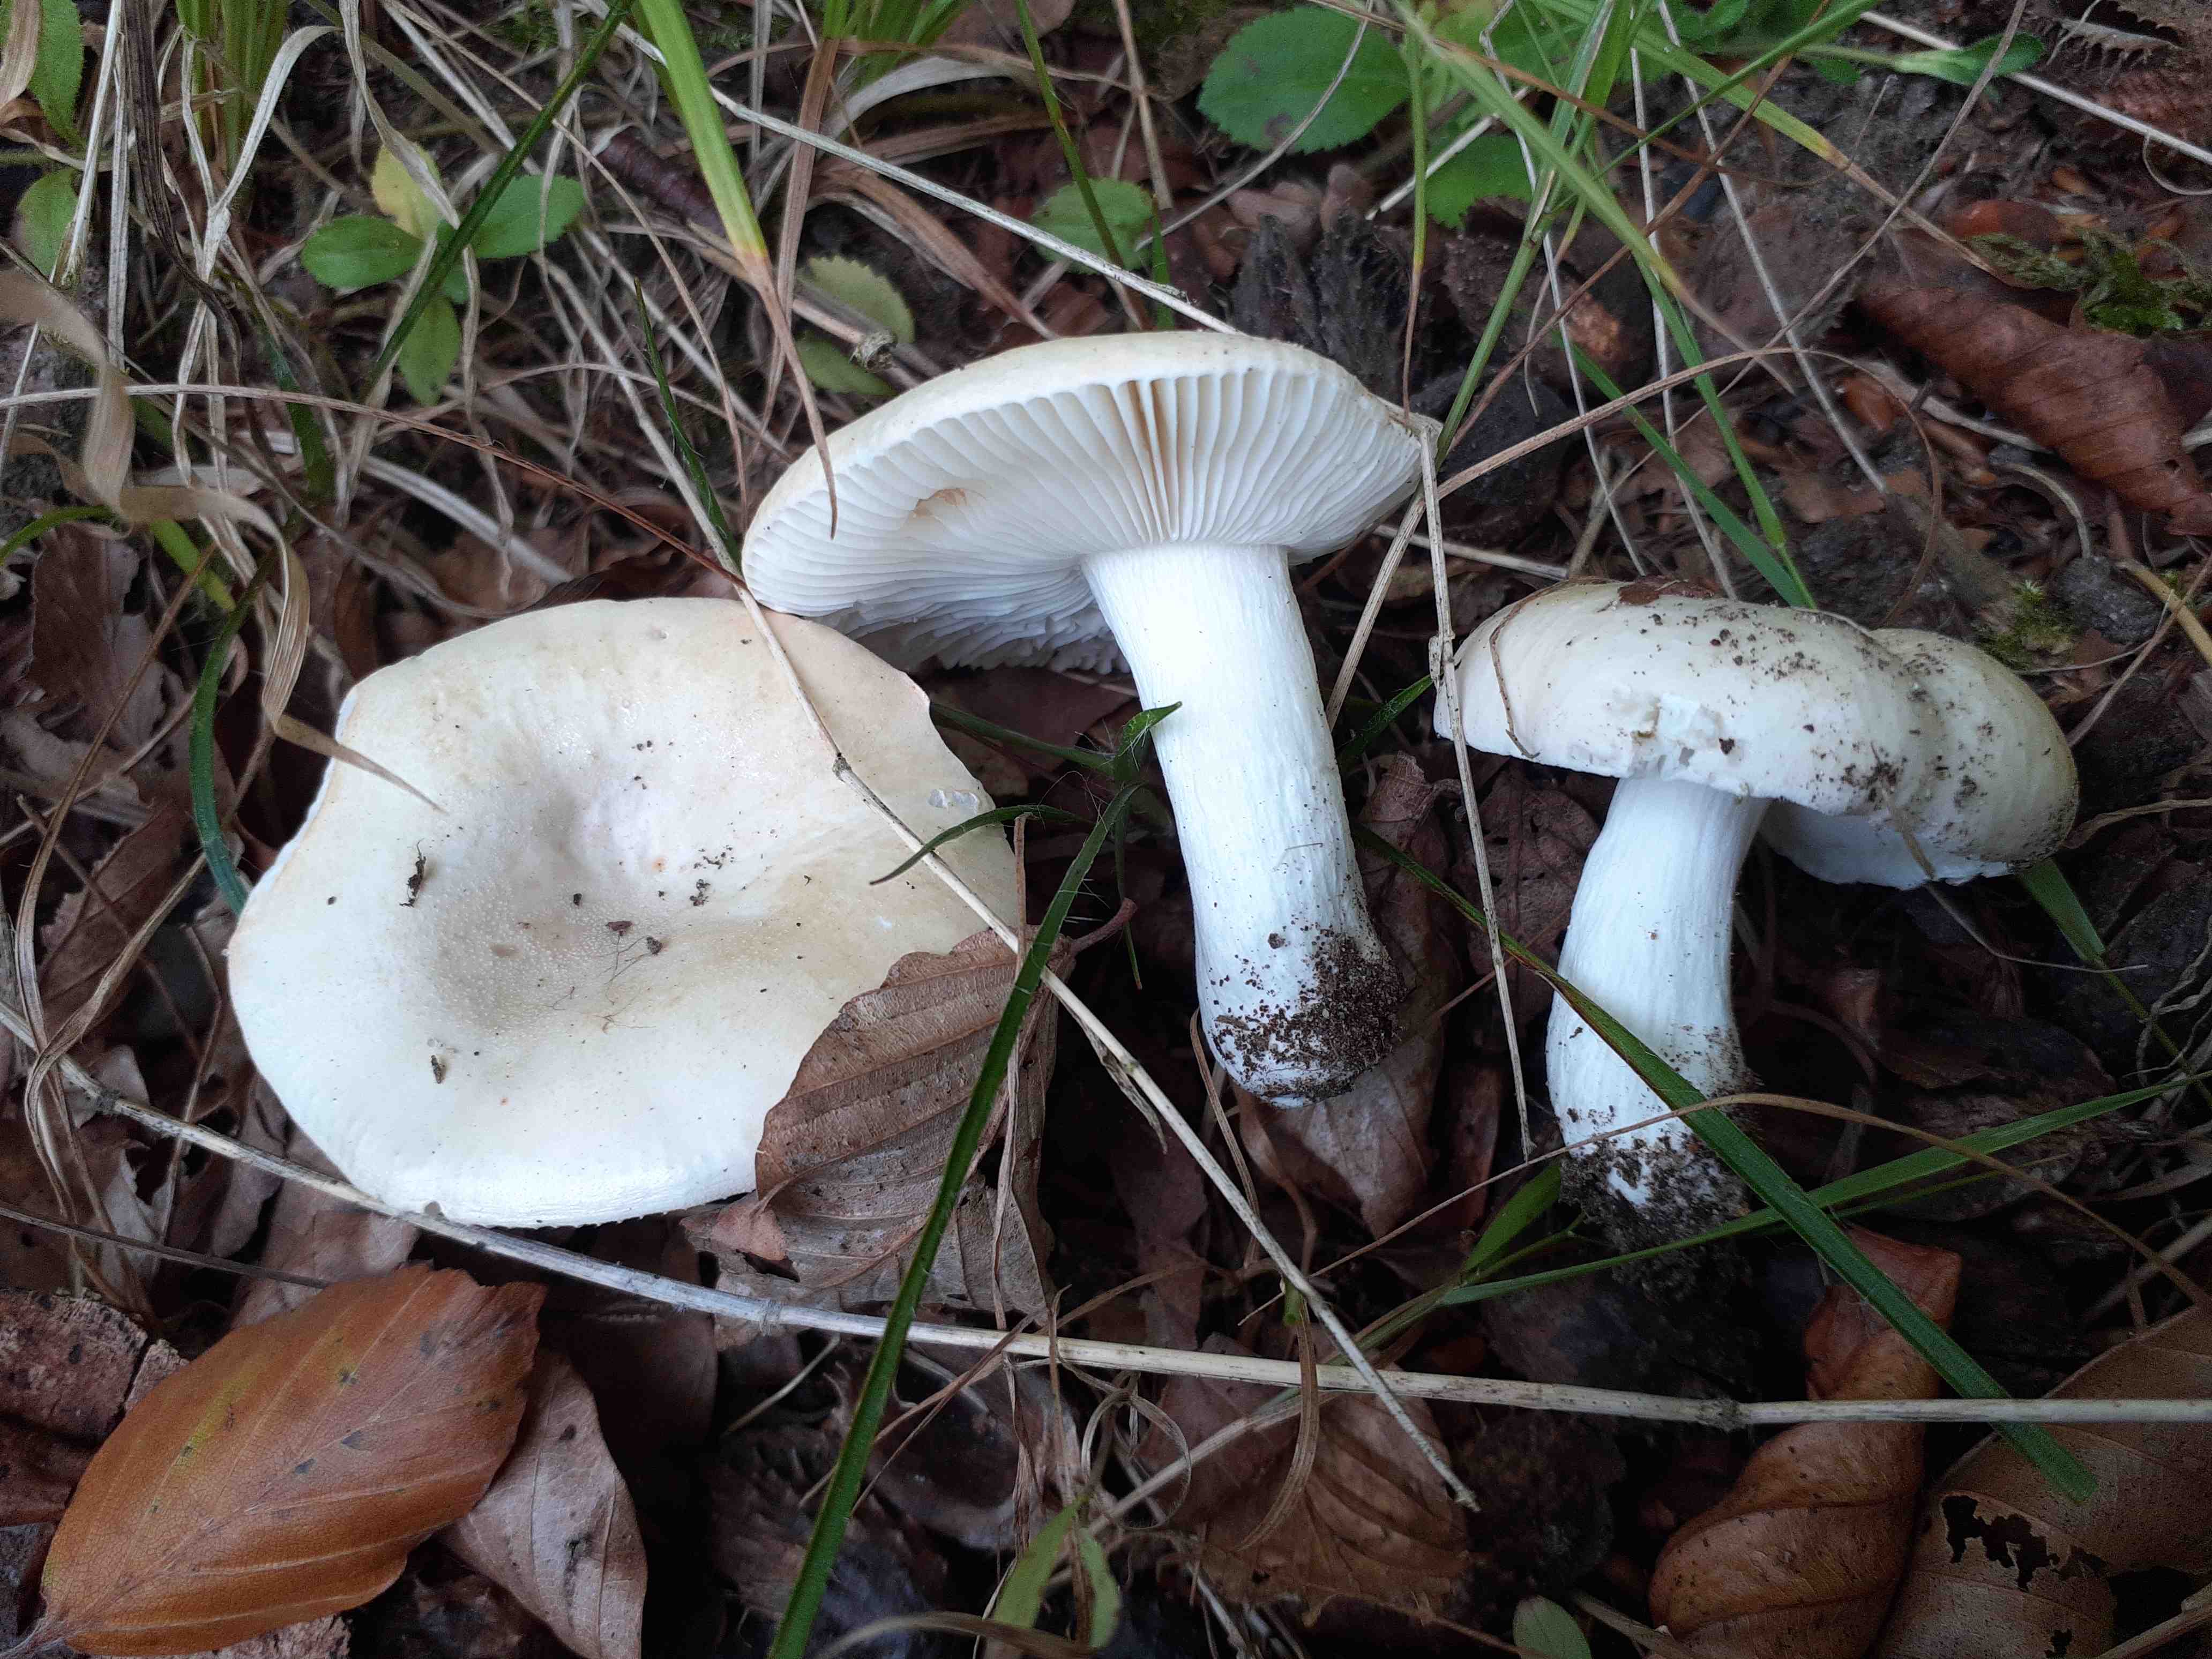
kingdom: Fungi
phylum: Basidiomycota
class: Agaricomycetes
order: Russulales
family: Russulaceae
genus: Russula
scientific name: Russula roseoaurantia
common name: kornet skørhat
